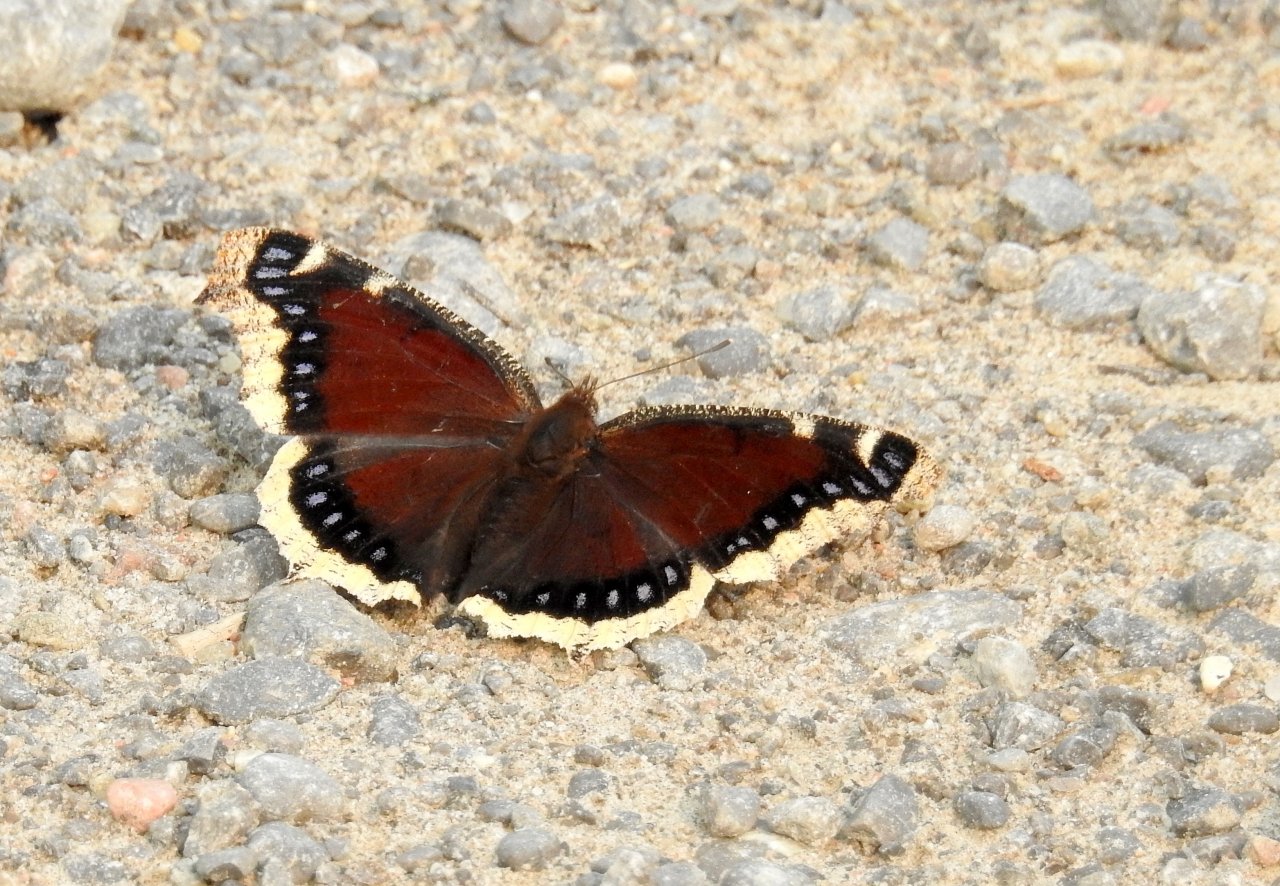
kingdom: Animalia
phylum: Arthropoda
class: Insecta
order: Lepidoptera
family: Nymphalidae
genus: Nymphalis
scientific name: Nymphalis antiopa
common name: Mourning Cloak
